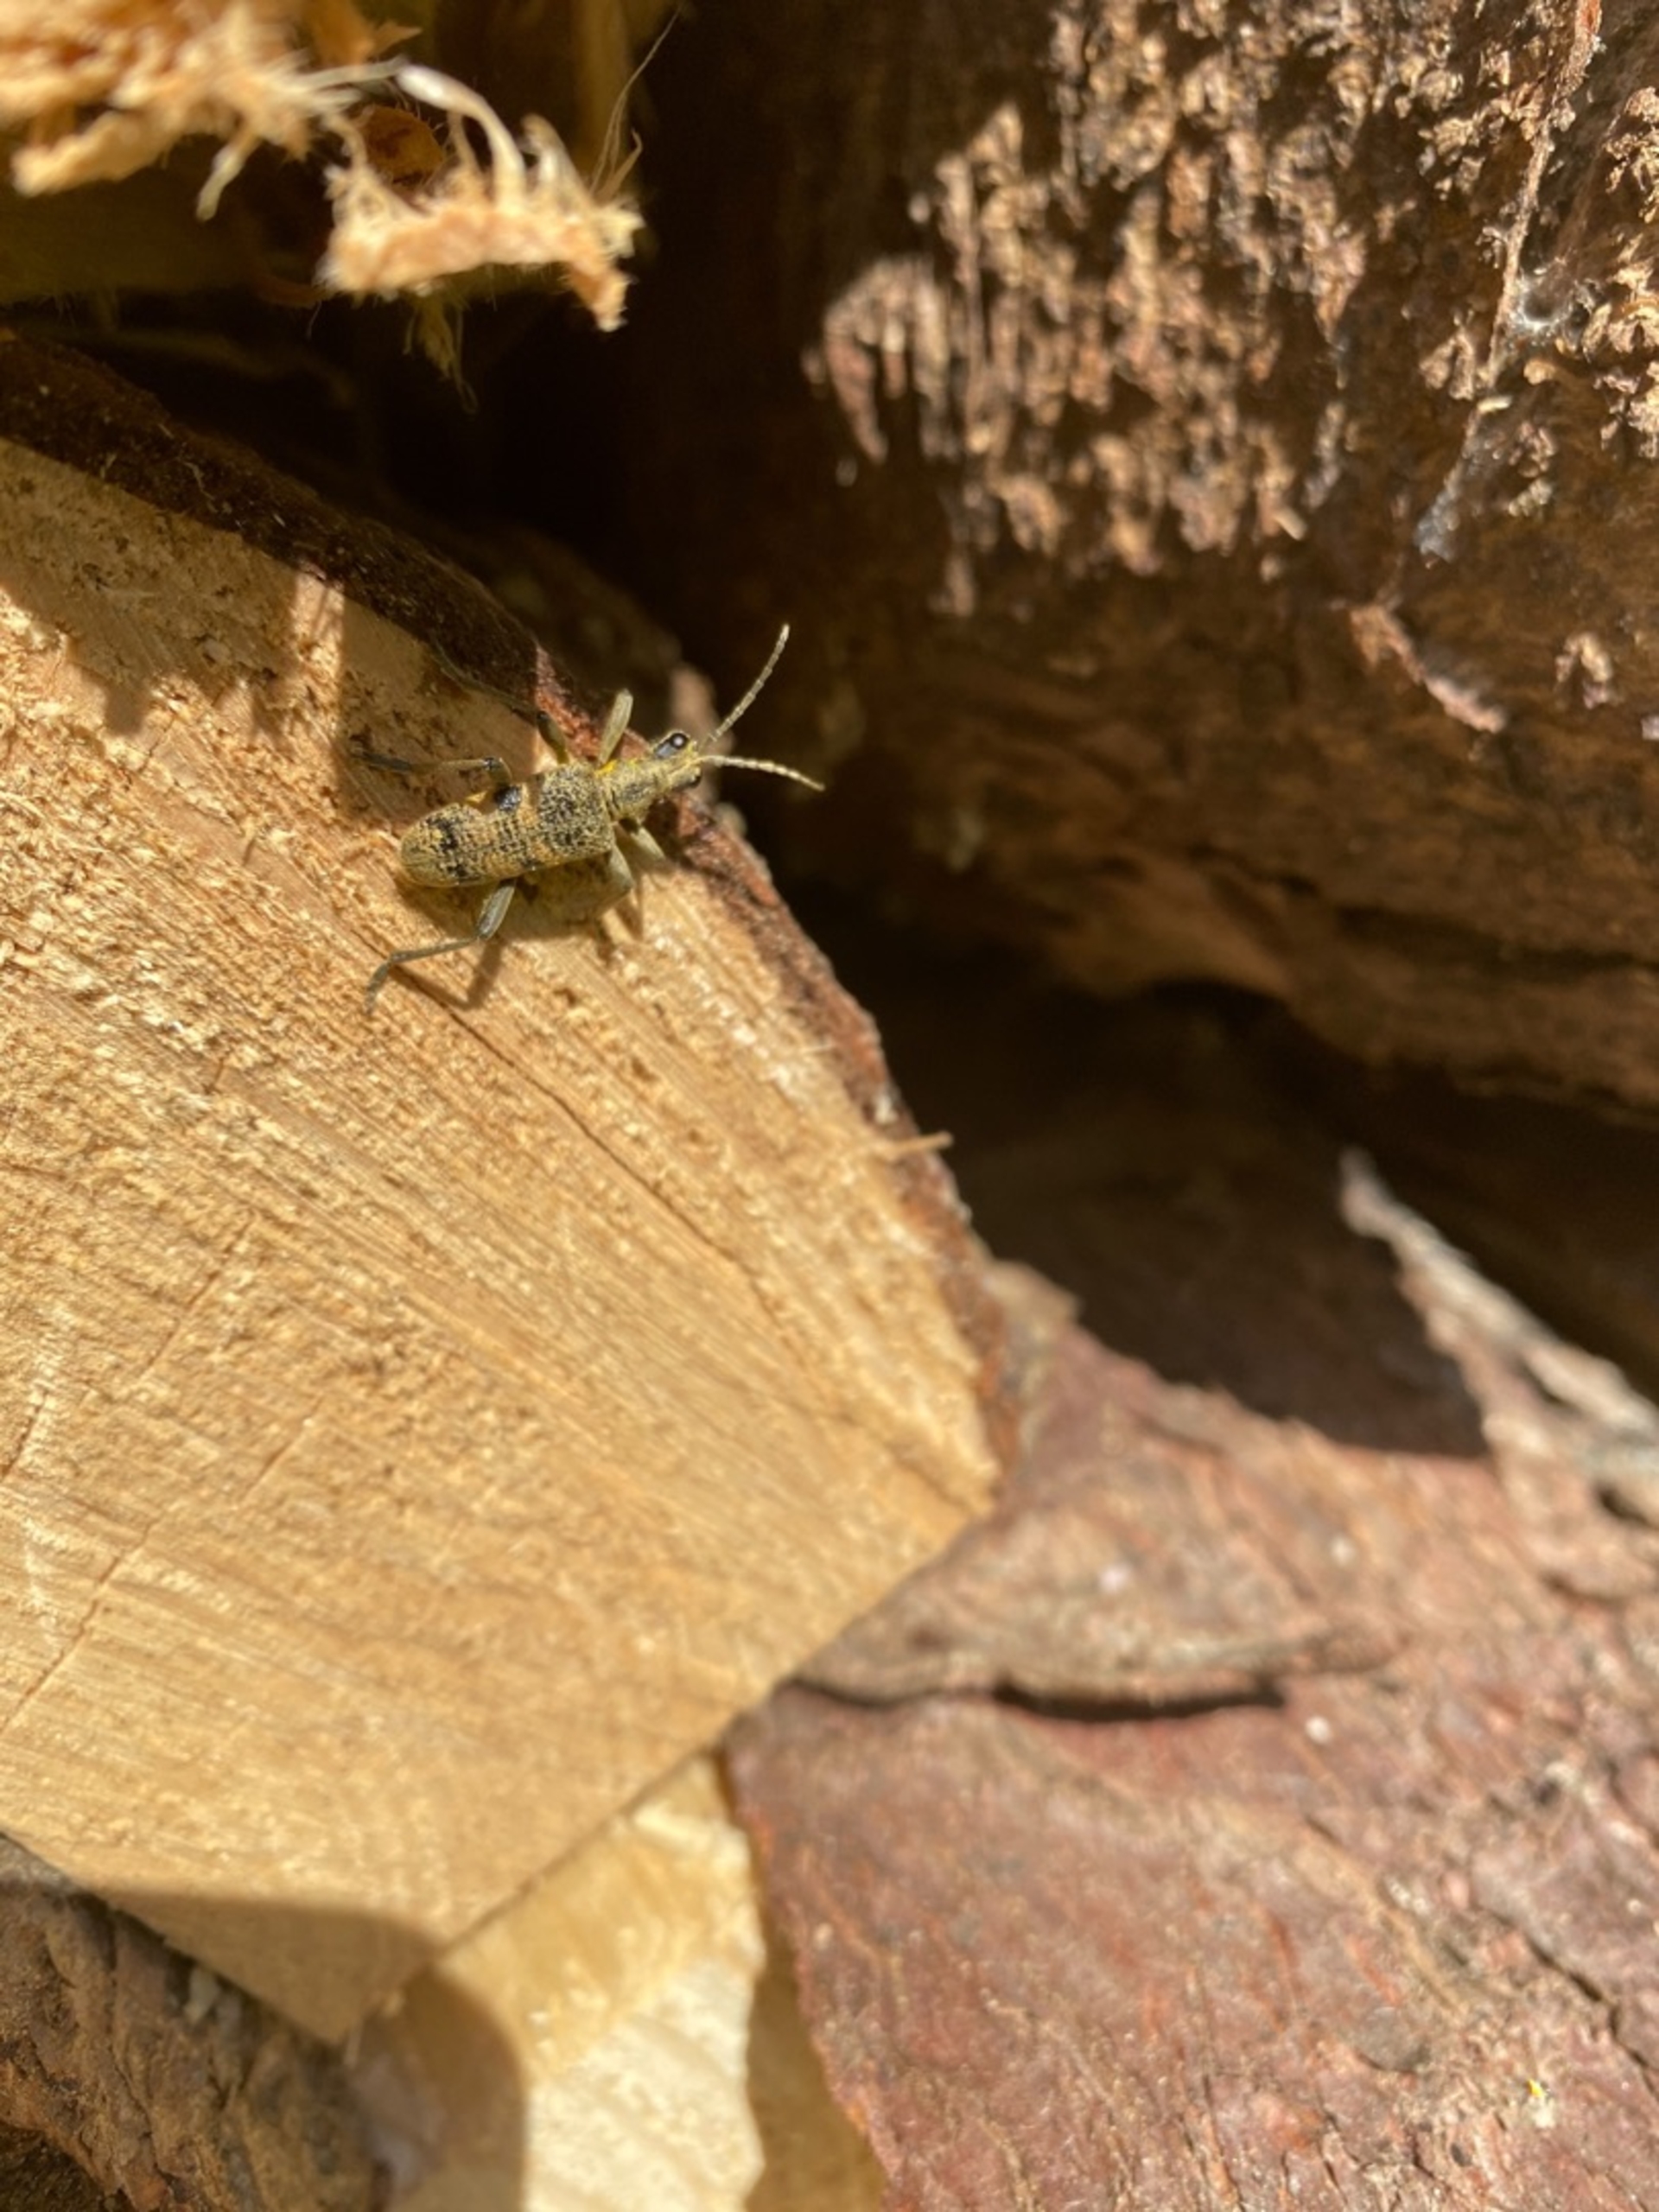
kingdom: Animalia
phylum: Arthropoda
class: Insecta
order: Coleoptera
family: Cerambycidae
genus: Rhagium
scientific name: Rhagium mordax
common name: Blankplettet tandbuk
